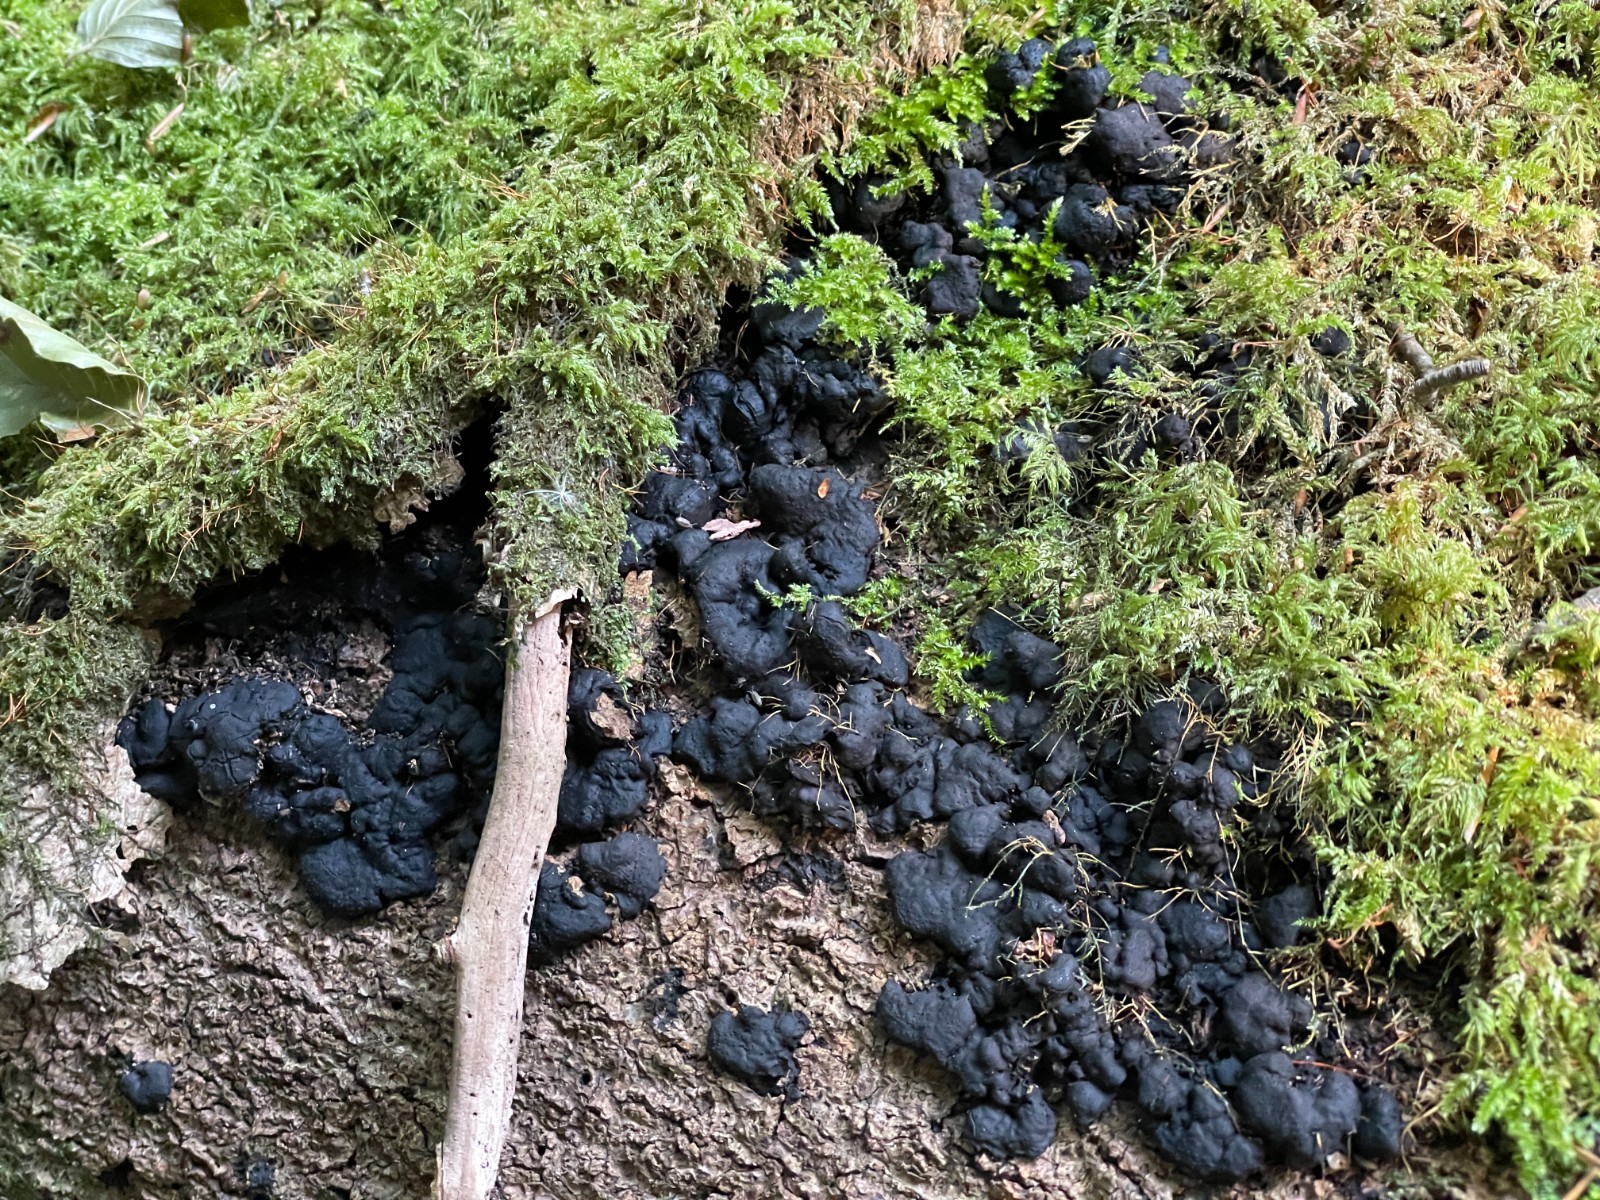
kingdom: Fungi
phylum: Ascomycota
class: Sordariomycetes
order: Xylariales
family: Xylariaceae
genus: Kretzschmaria
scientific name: Kretzschmaria deusta
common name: stor kulsvamp
